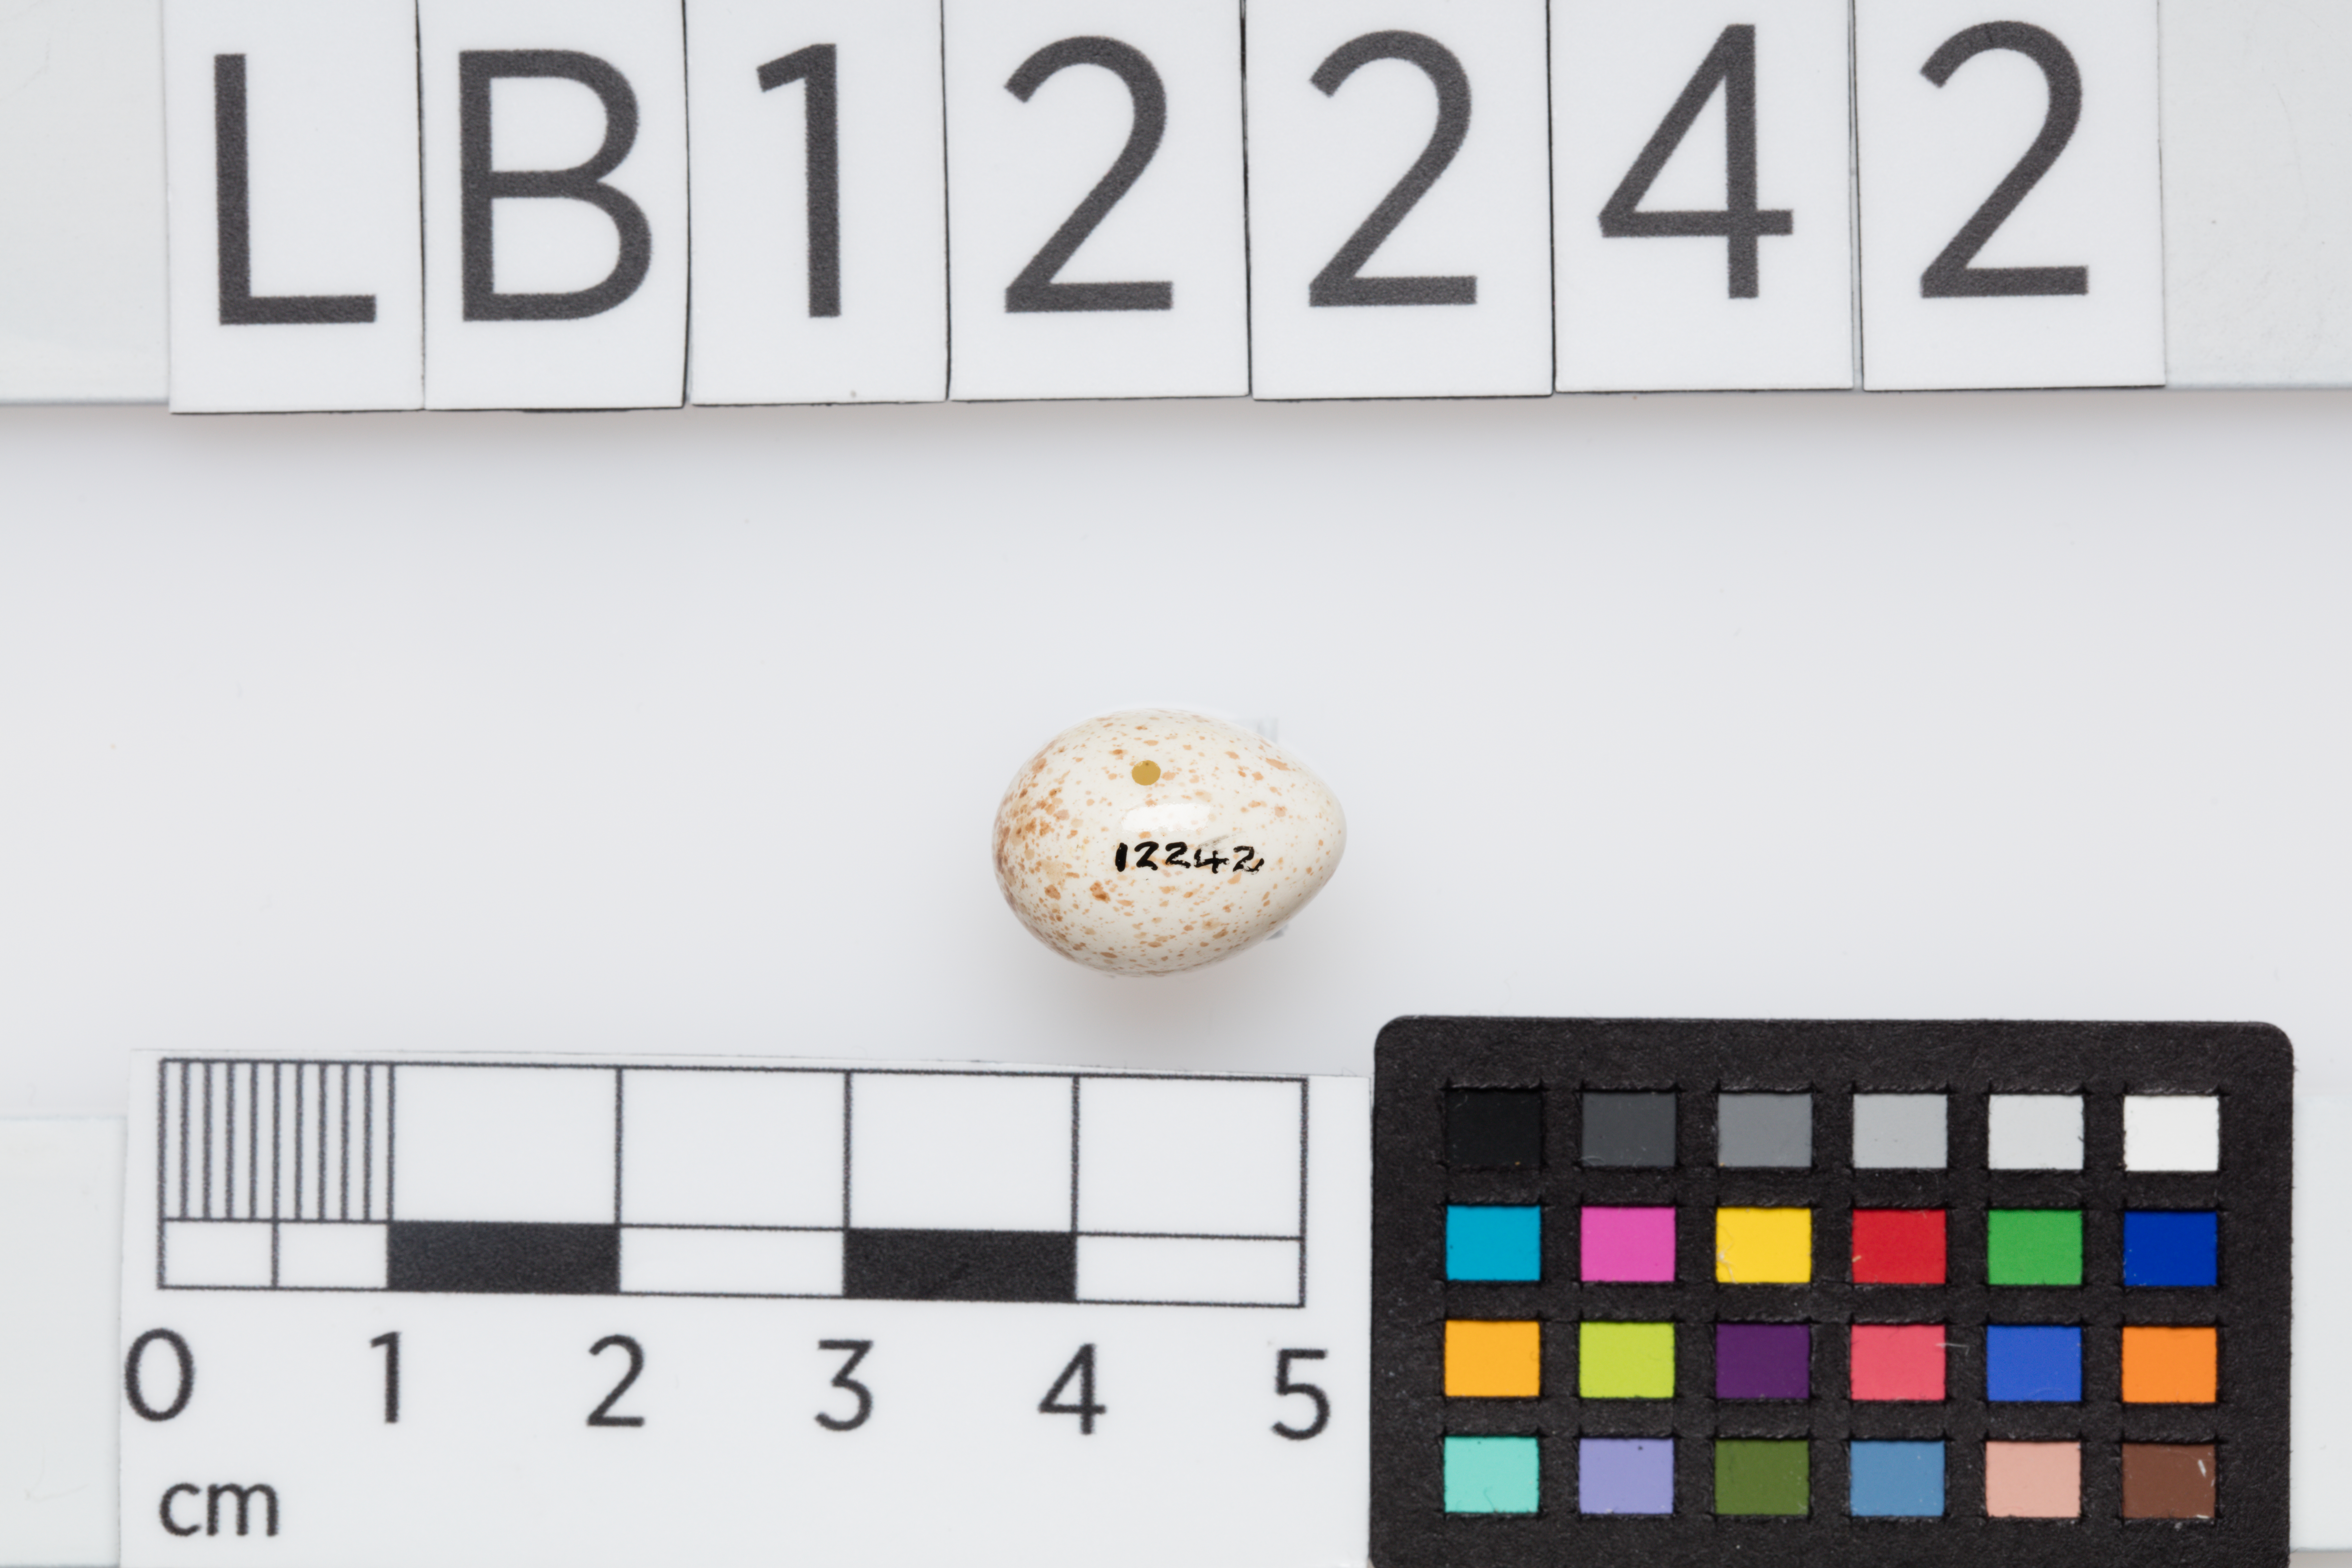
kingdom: Animalia
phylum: Chordata
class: Aves
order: Passeriformes
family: Paridae
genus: Cyanistes
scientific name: Cyanistes caeruleus
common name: Eurasian blue tit
